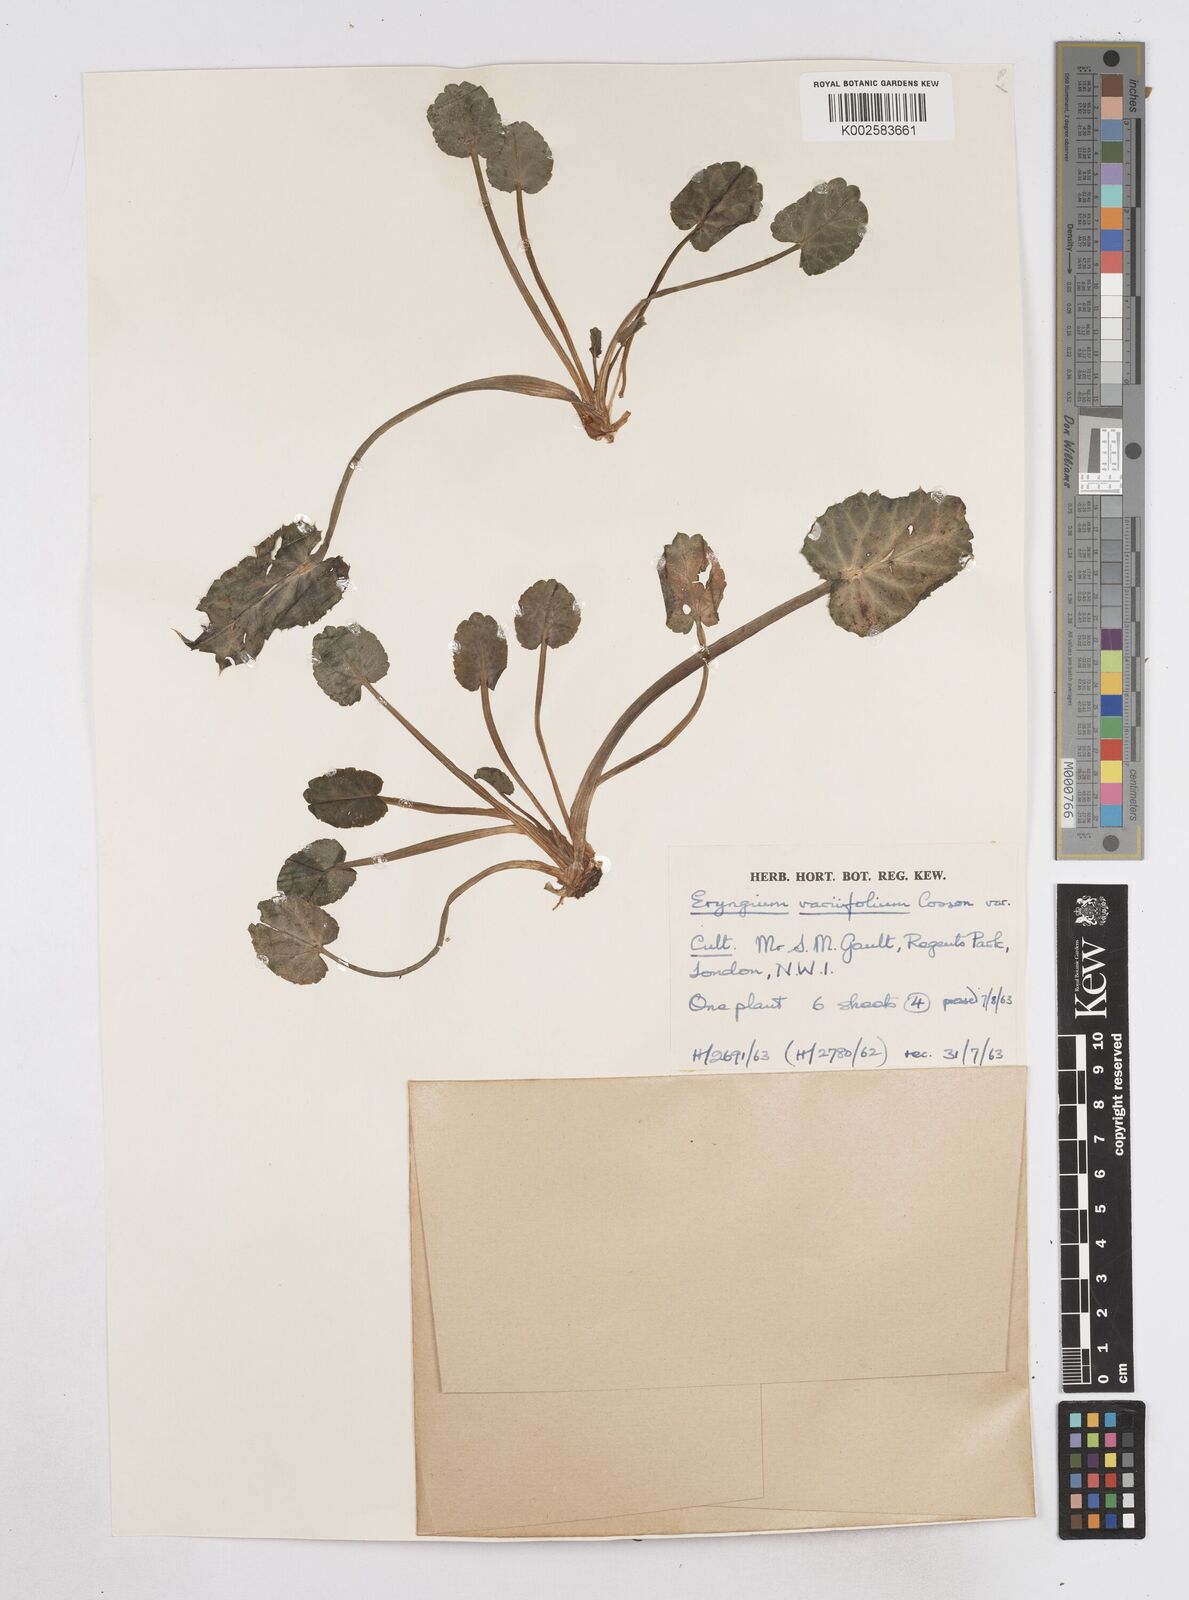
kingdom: Plantae
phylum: Tracheophyta
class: Magnoliopsida
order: Apiales
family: Apiaceae
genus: Eryngium
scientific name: Eryngium variifolium
